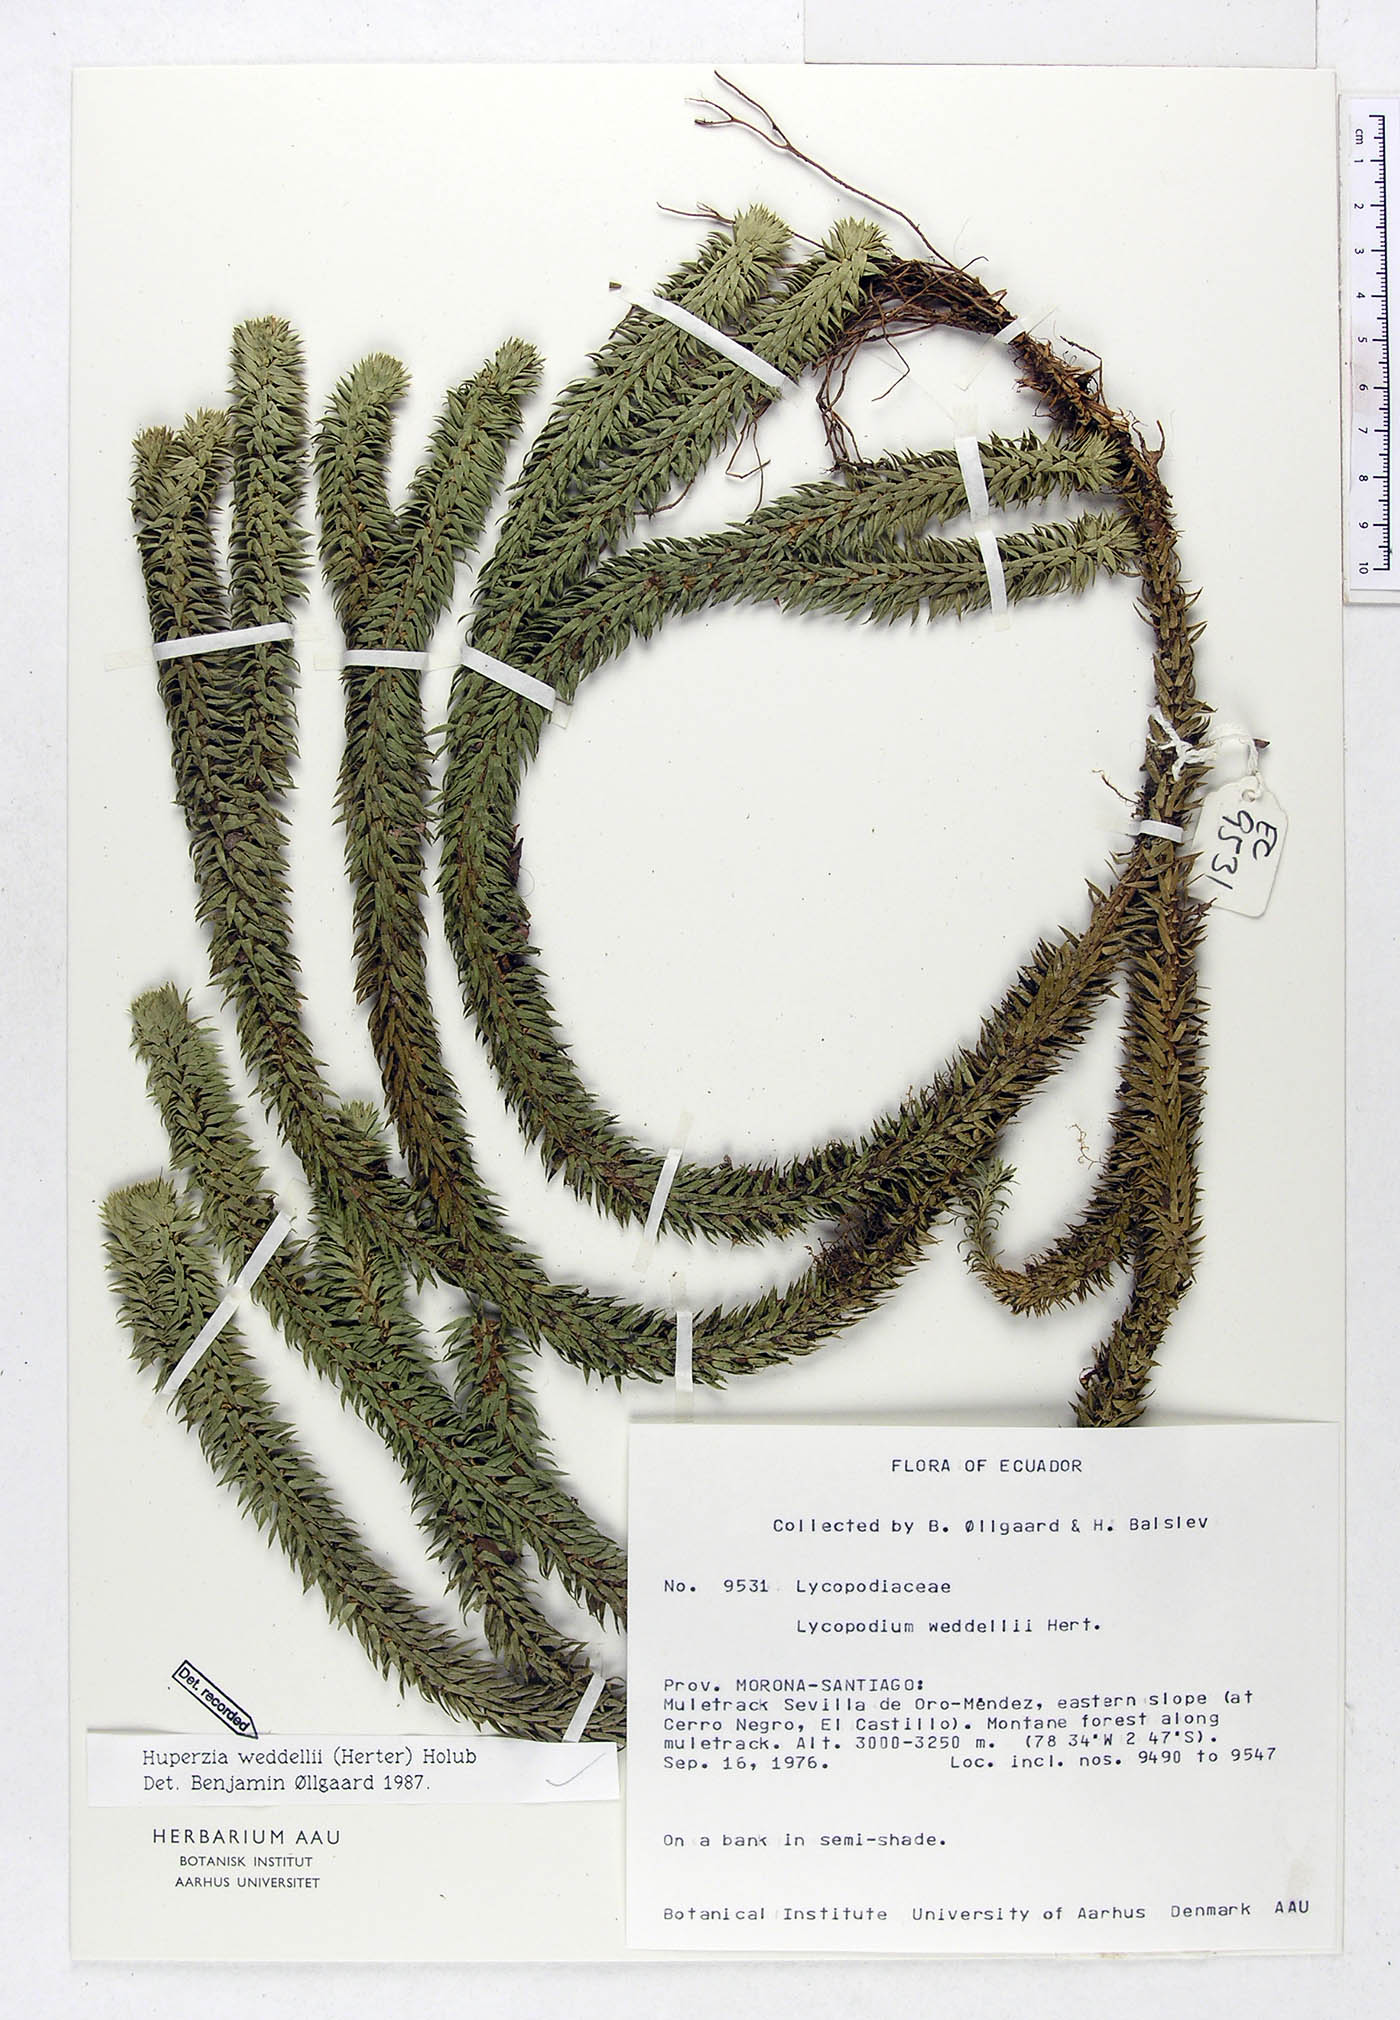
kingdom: Plantae
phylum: Tracheophyta
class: Lycopodiopsida
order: Lycopodiales
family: Lycopodiaceae
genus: Phlegmariurus
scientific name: Phlegmariurus weddellii
